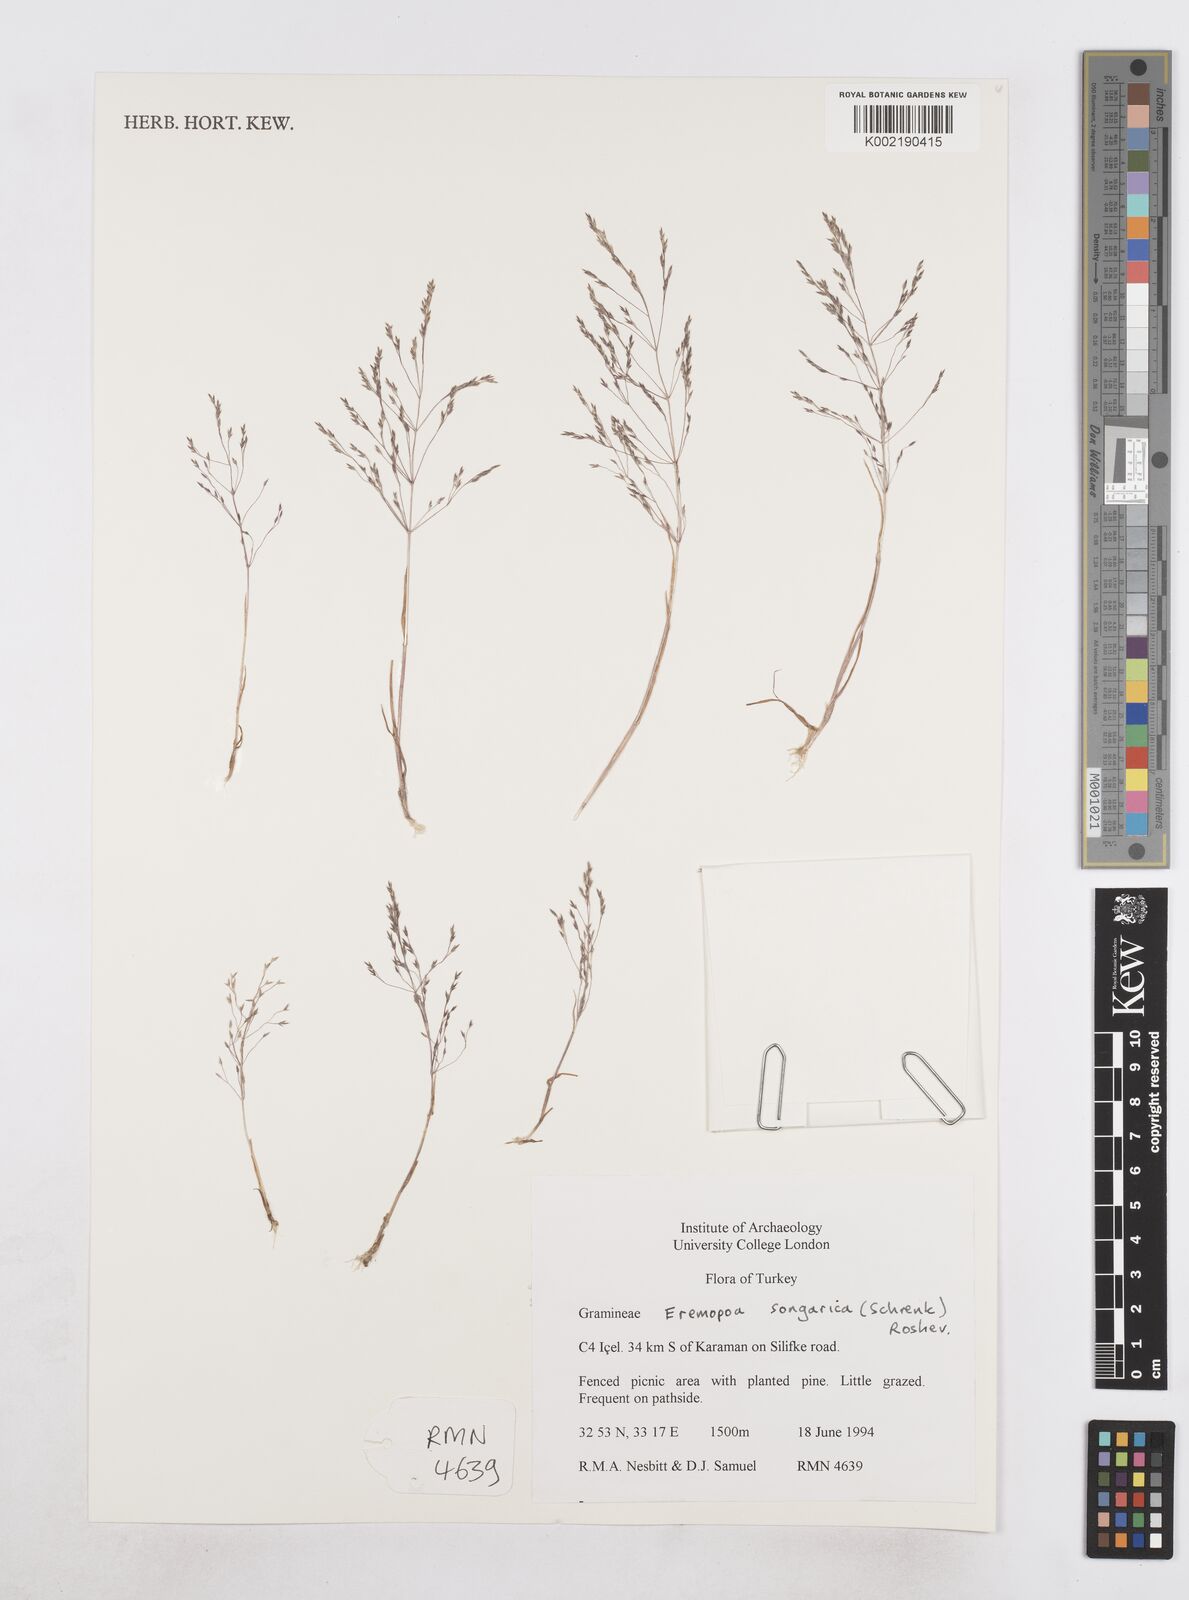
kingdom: Plantae
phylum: Tracheophyta
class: Liliopsida
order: Poales
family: Poaceae
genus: Poa
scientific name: Poa diaphora
